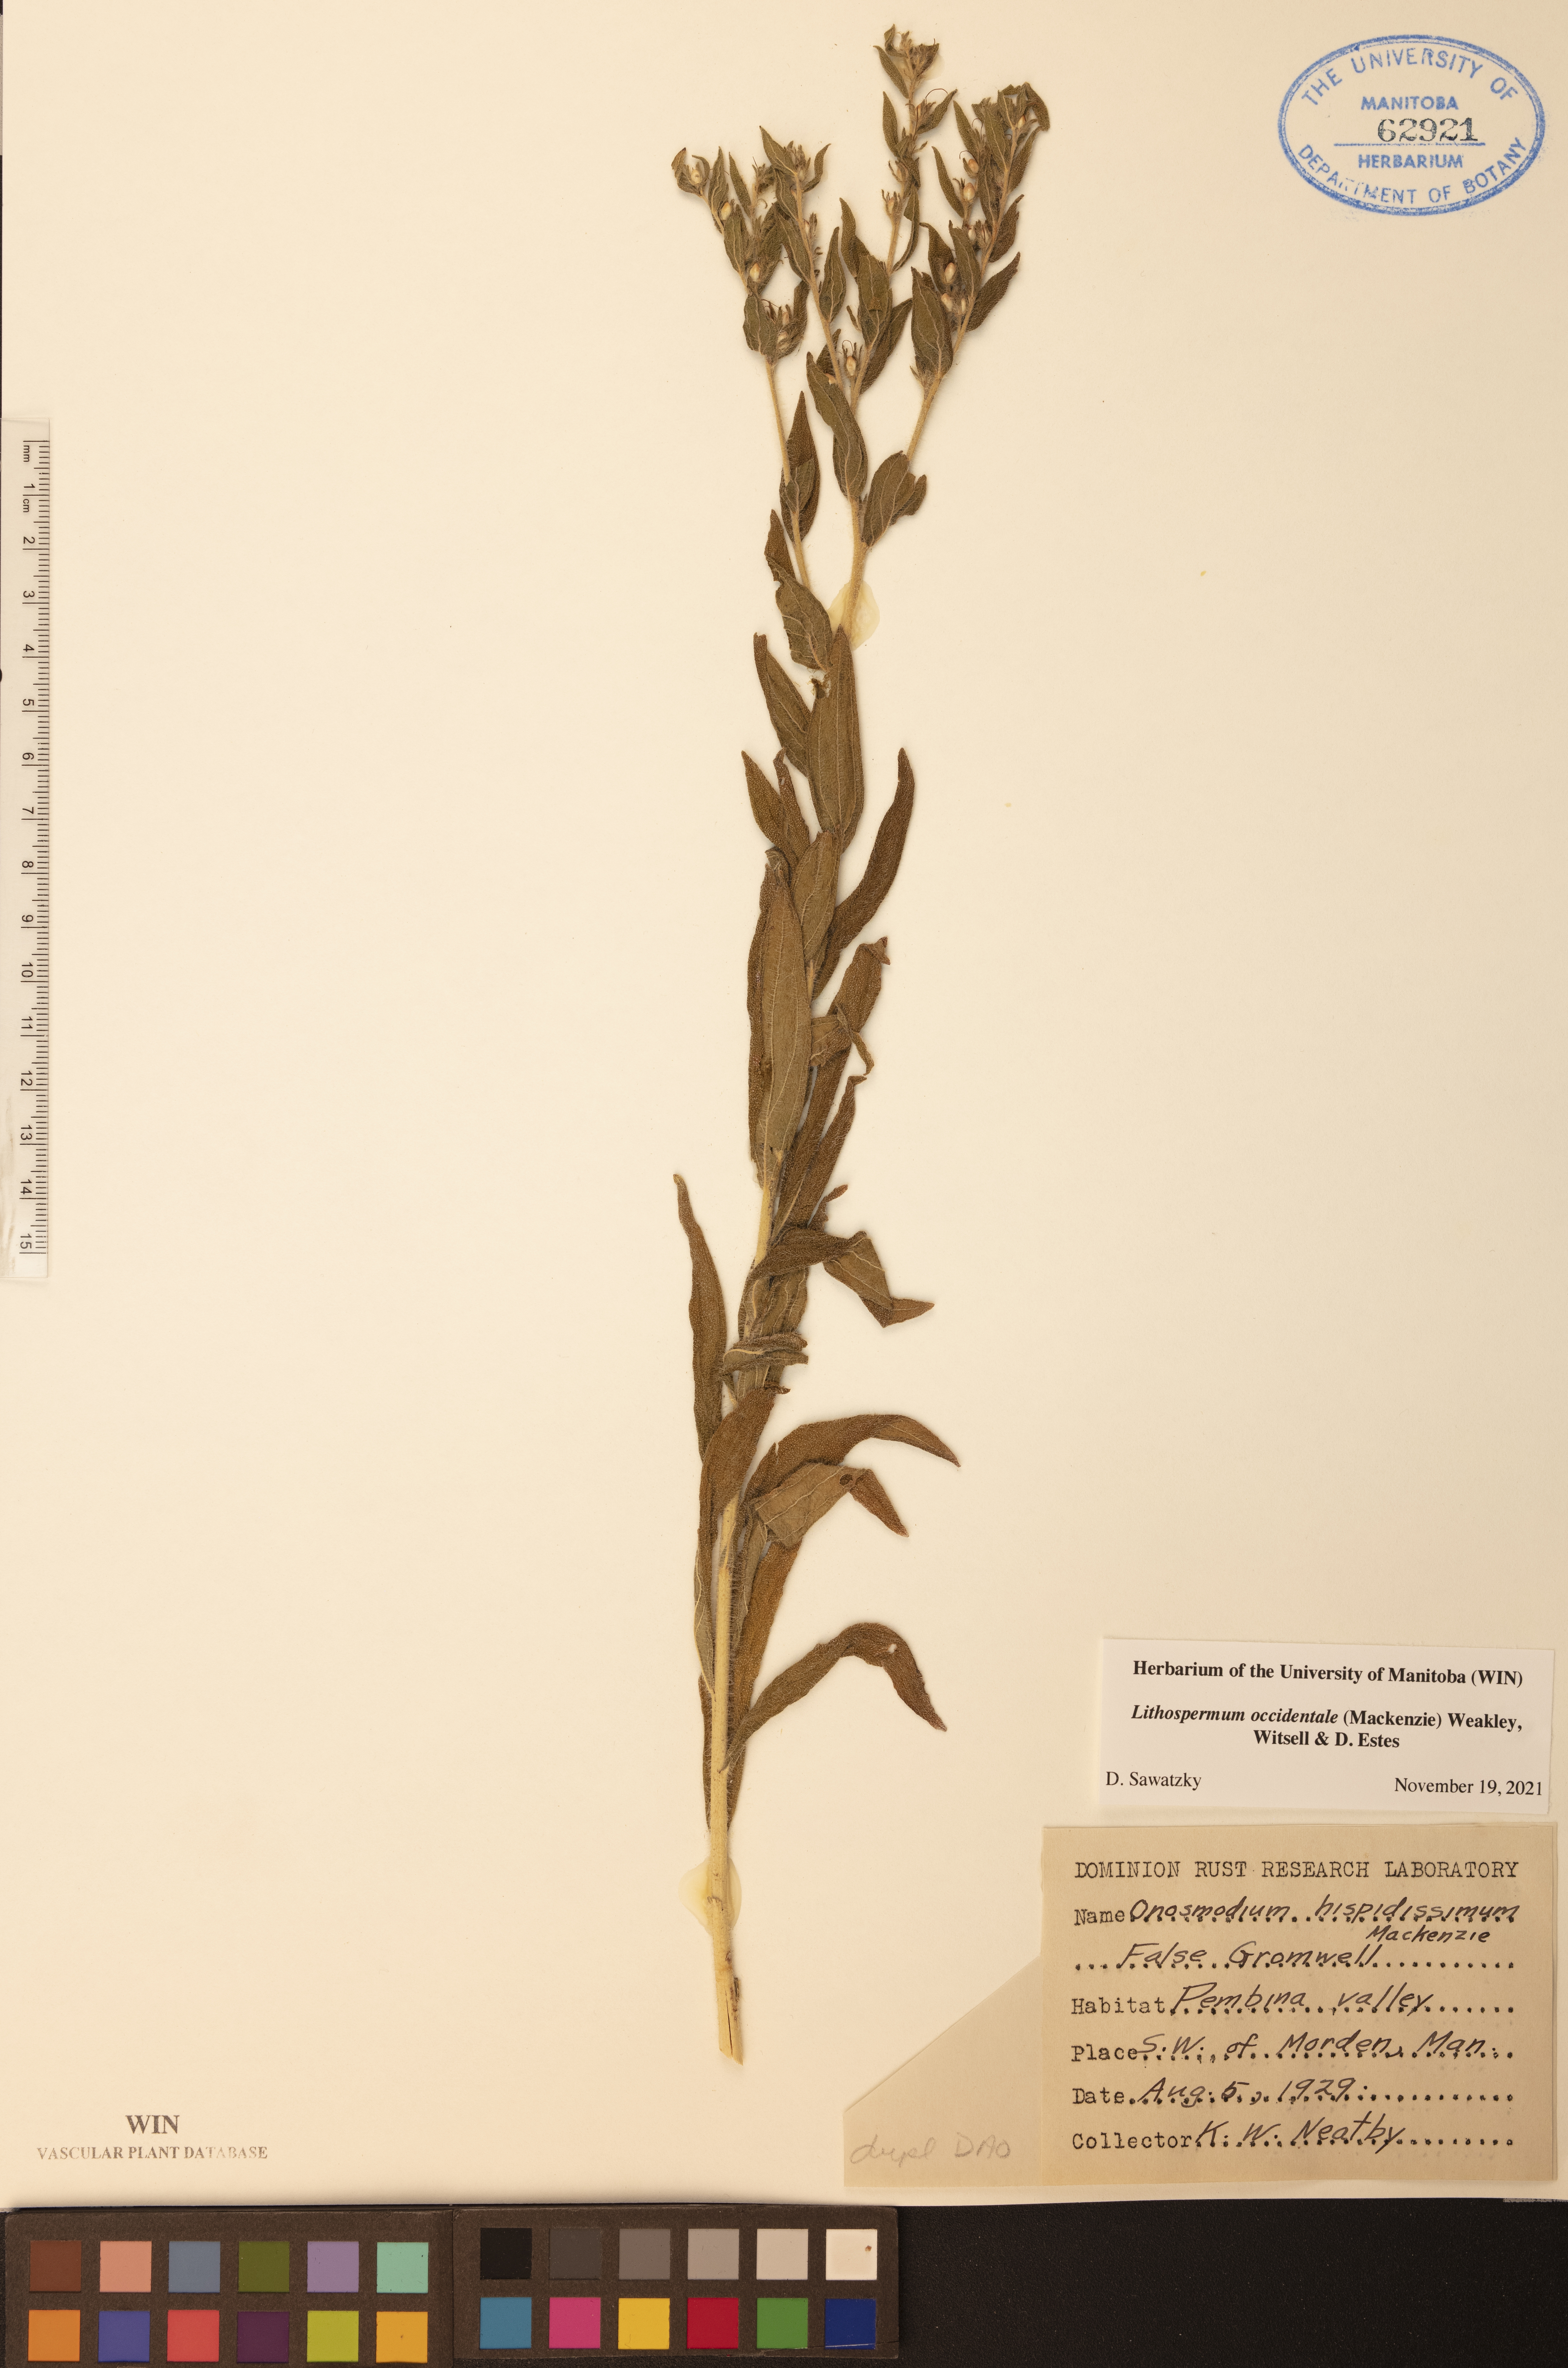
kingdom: Plantae
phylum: Tracheophyta
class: Magnoliopsida
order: Boraginales
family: Boraginaceae
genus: Lithospermum
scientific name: Lithospermum occidentale
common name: Western false gromwell
